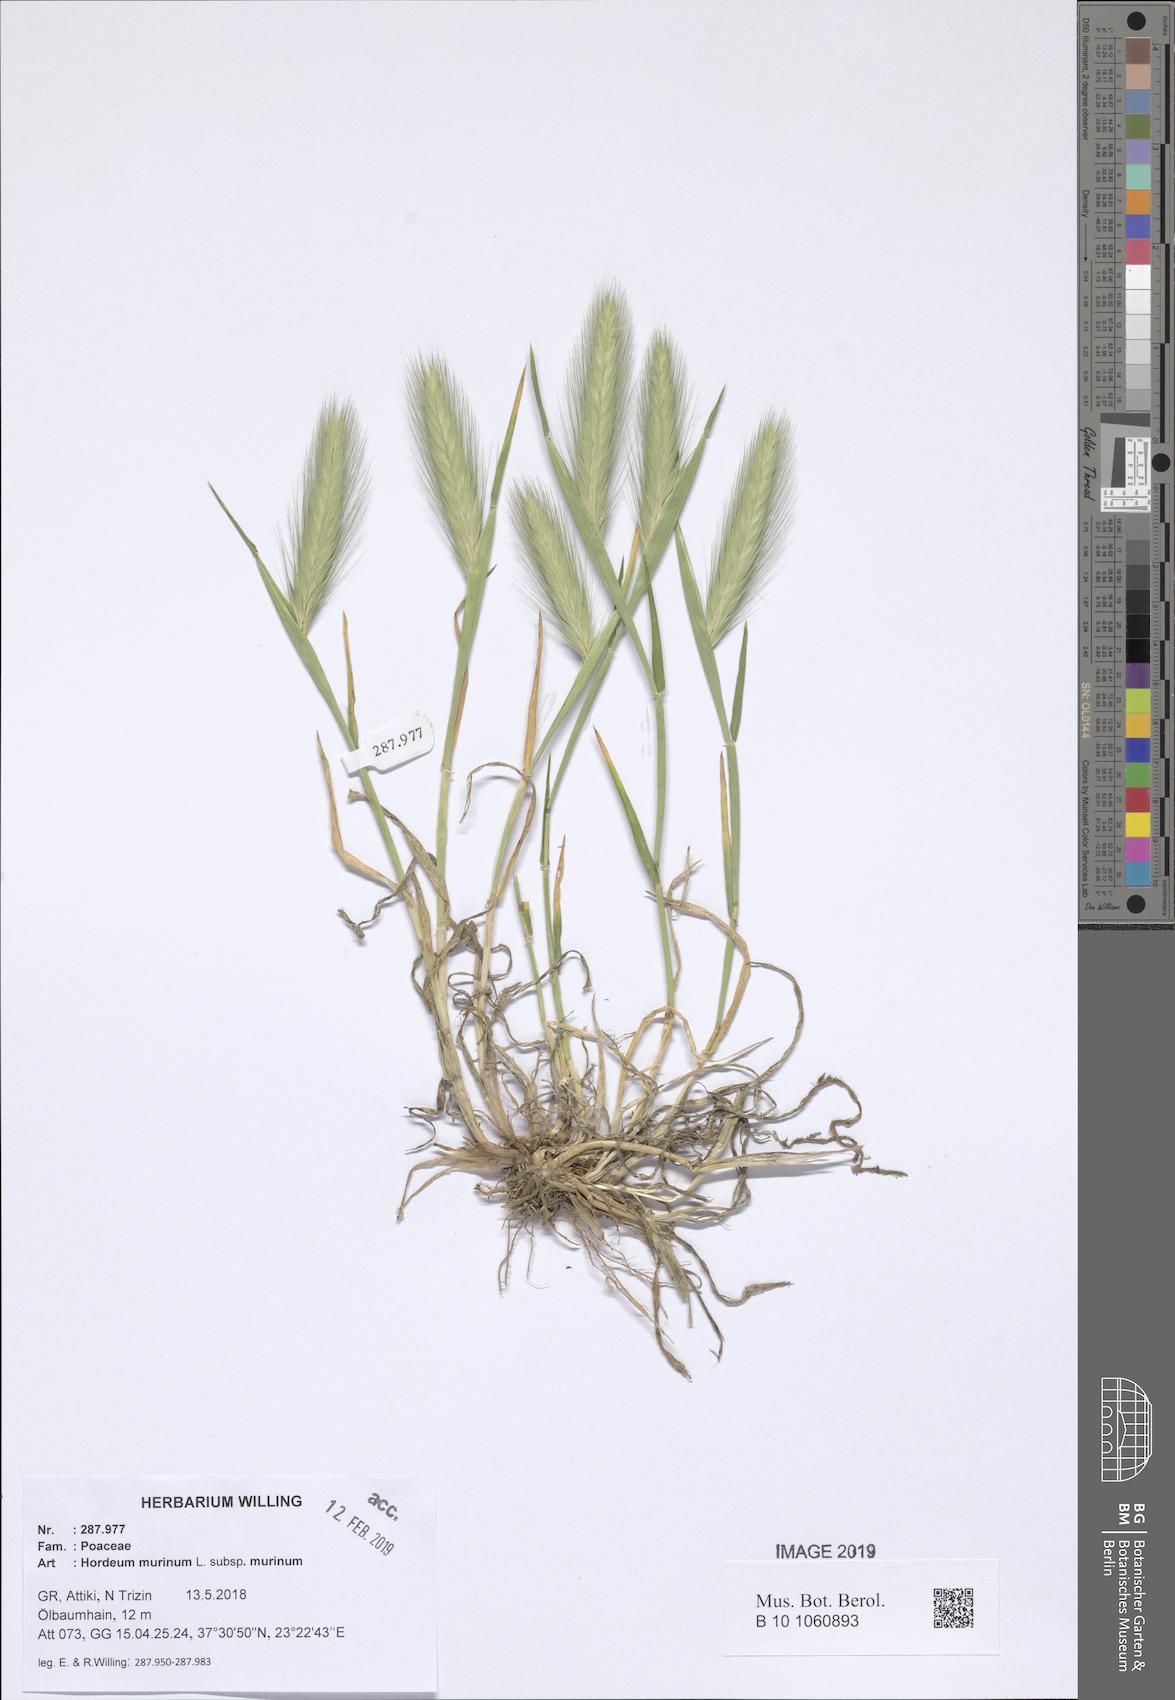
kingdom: Plantae
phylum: Tracheophyta
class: Liliopsida
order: Poales
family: Poaceae
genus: Hordeum
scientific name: Hordeum murinum
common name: Wall barley
